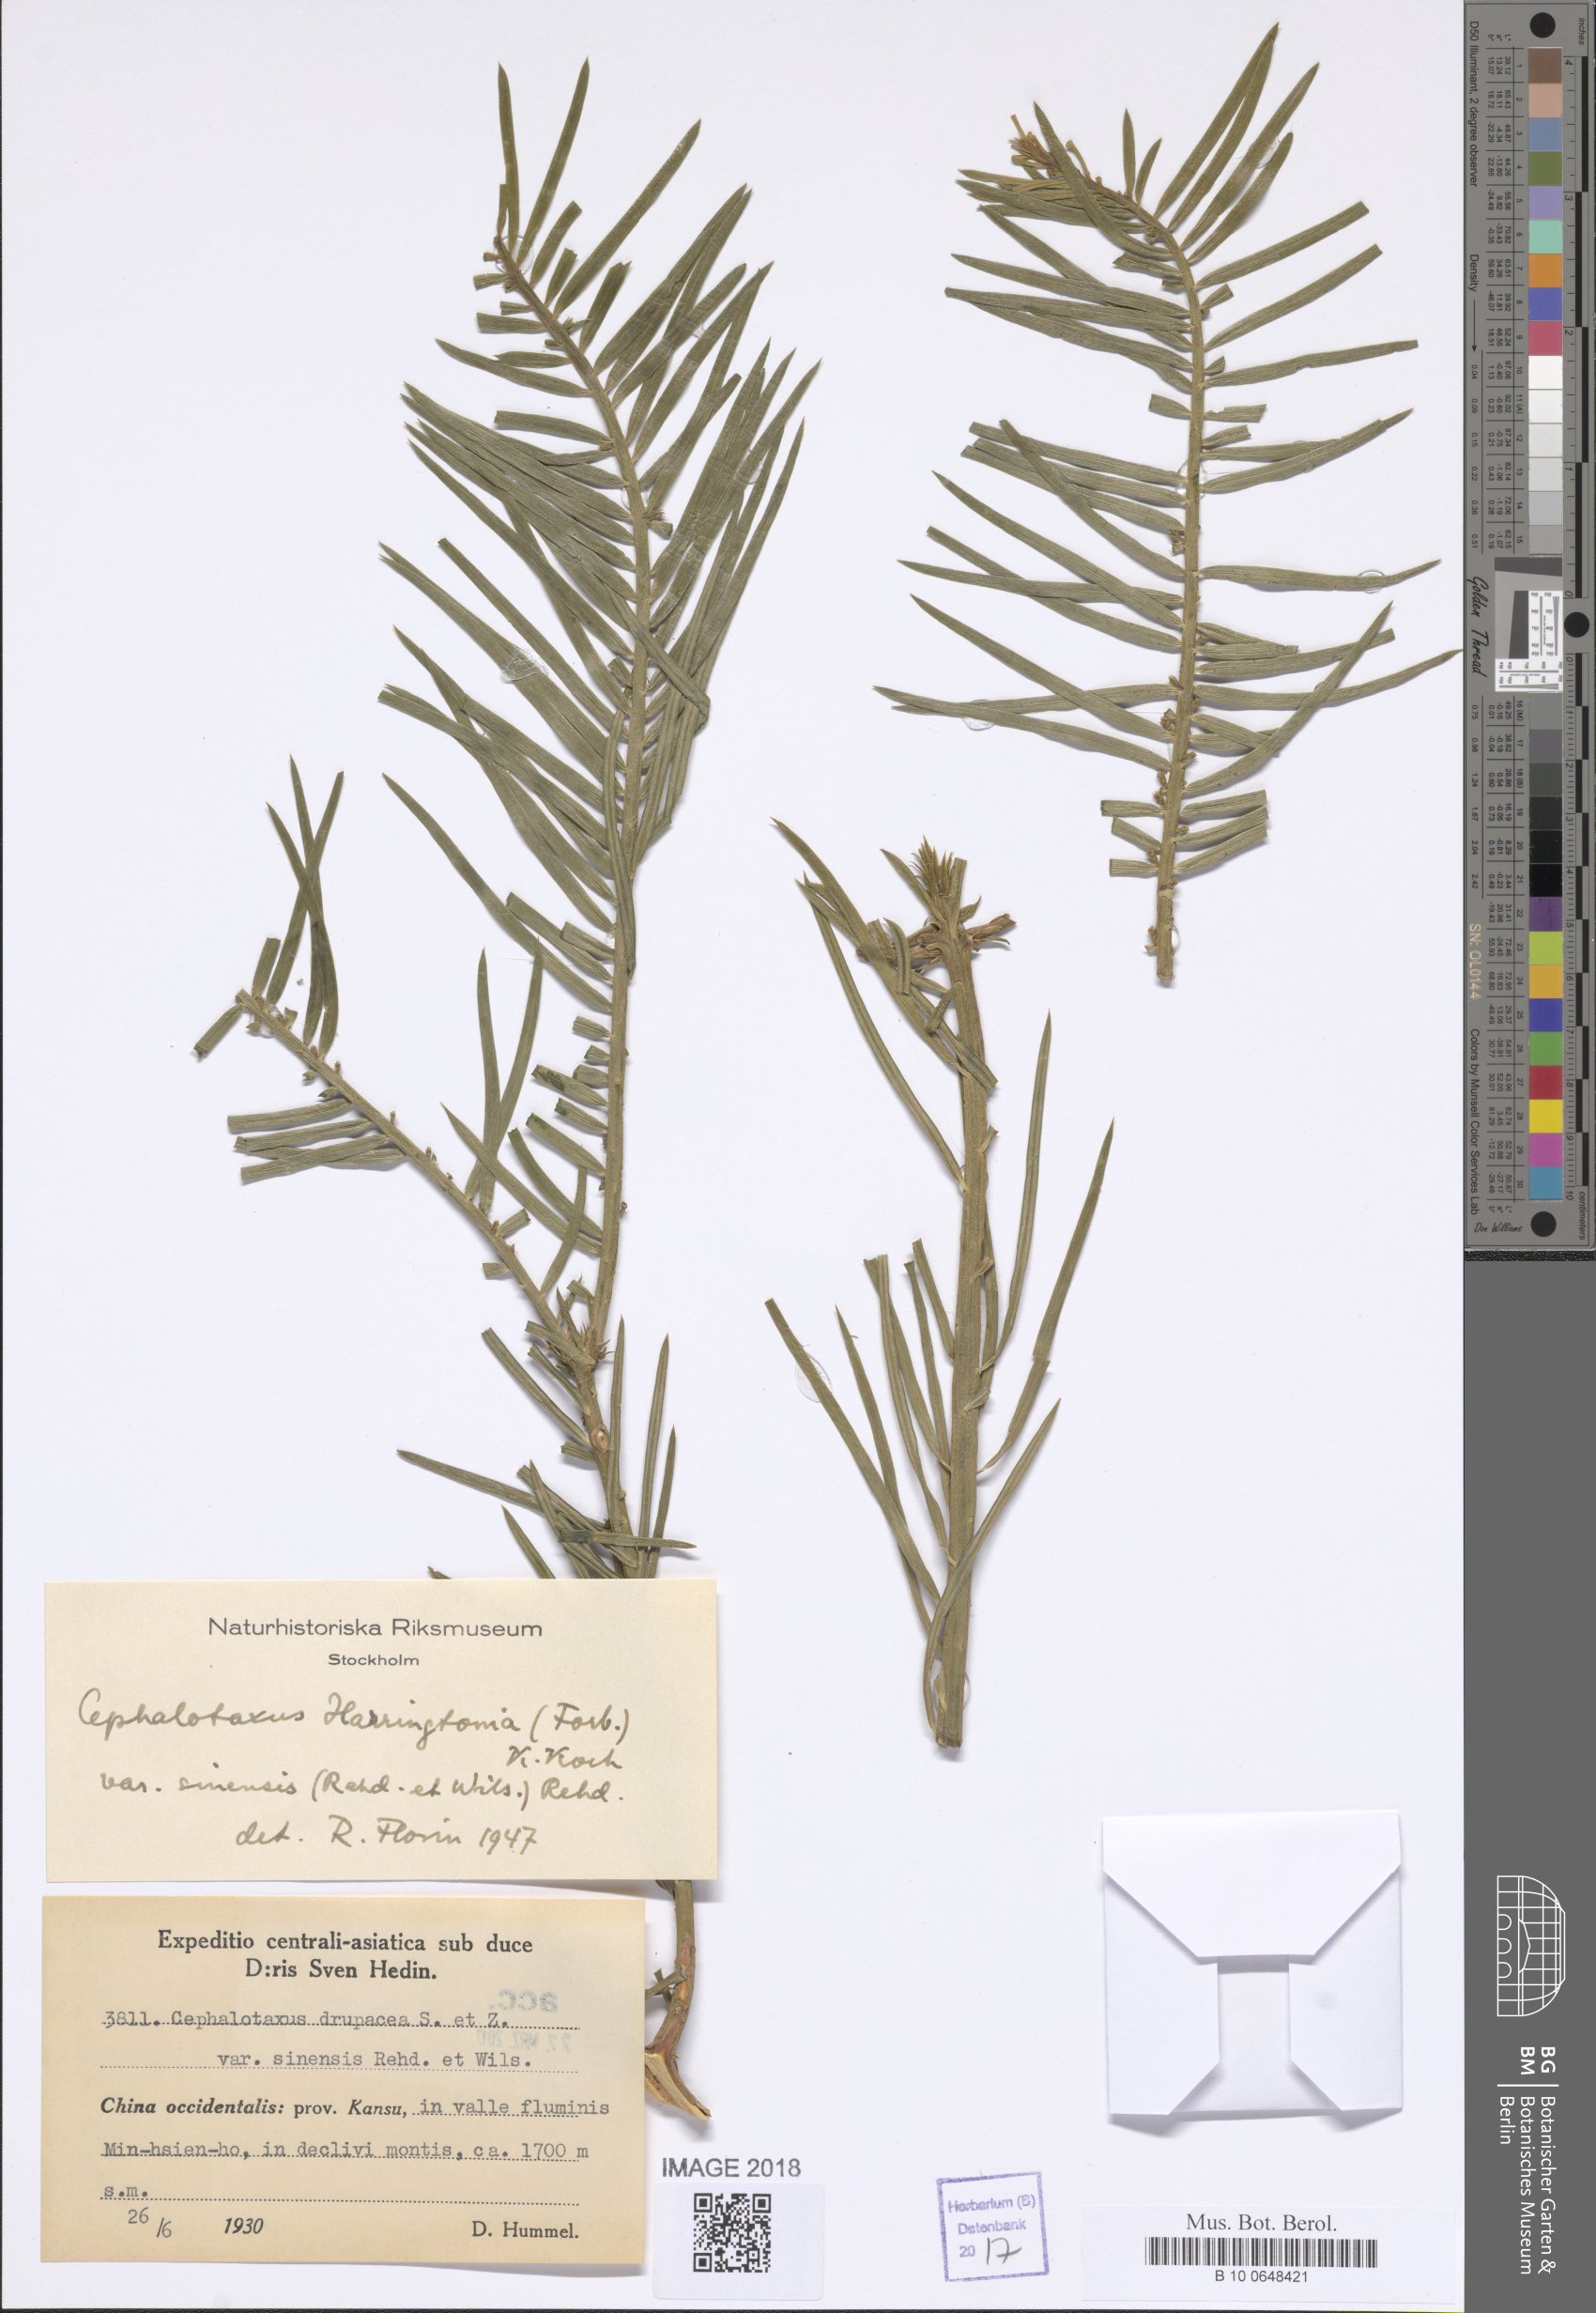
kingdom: Plantae
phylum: Tracheophyta
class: Pinopsida
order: Pinales
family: Cephalotaxaceae
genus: Cephalotaxus
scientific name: Cephalotaxus sinensis
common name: Chinese plum yew
